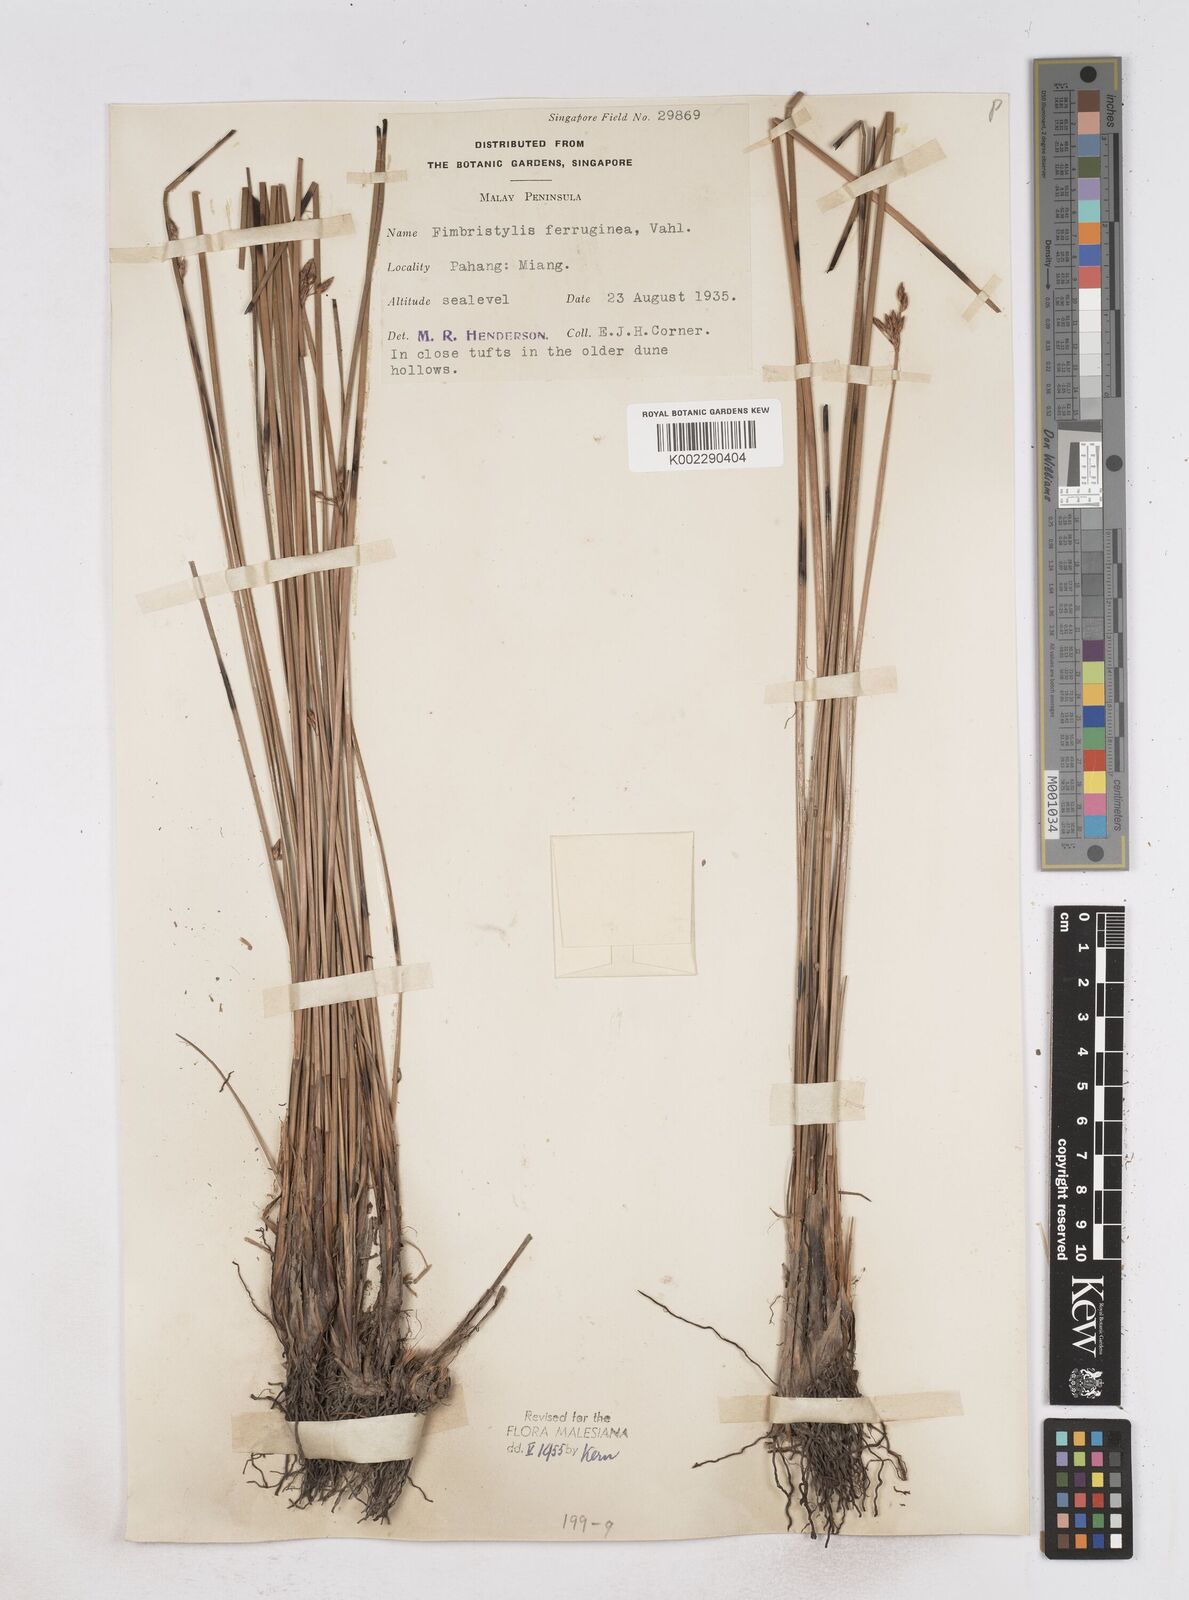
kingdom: Plantae
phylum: Tracheophyta
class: Liliopsida
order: Poales
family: Cyperaceae
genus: Fimbristylis
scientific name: Fimbristylis ferruginea
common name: West indian fimbry
